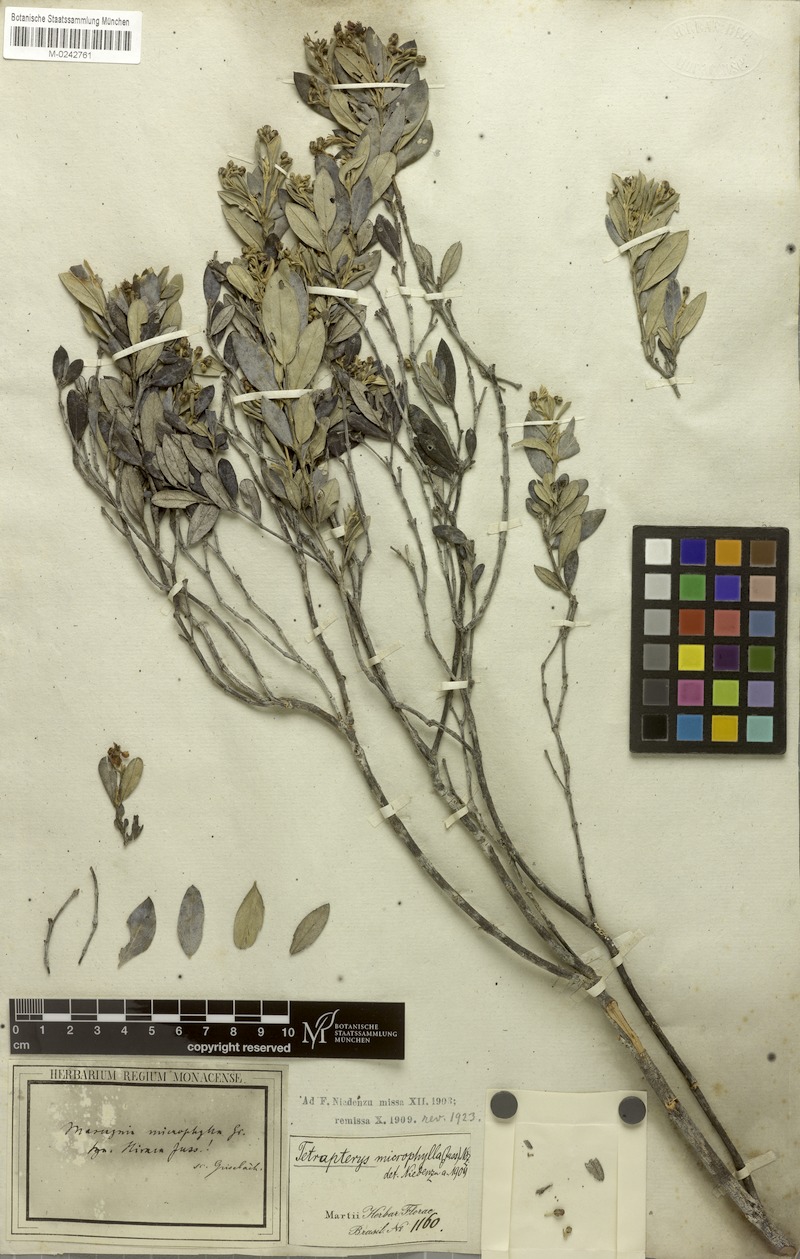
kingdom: Plantae
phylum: Tracheophyta
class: Magnoliopsida
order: Malpighiales
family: Malpighiaceae
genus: Glicophyllum
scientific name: Glicophyllum microphyllum
